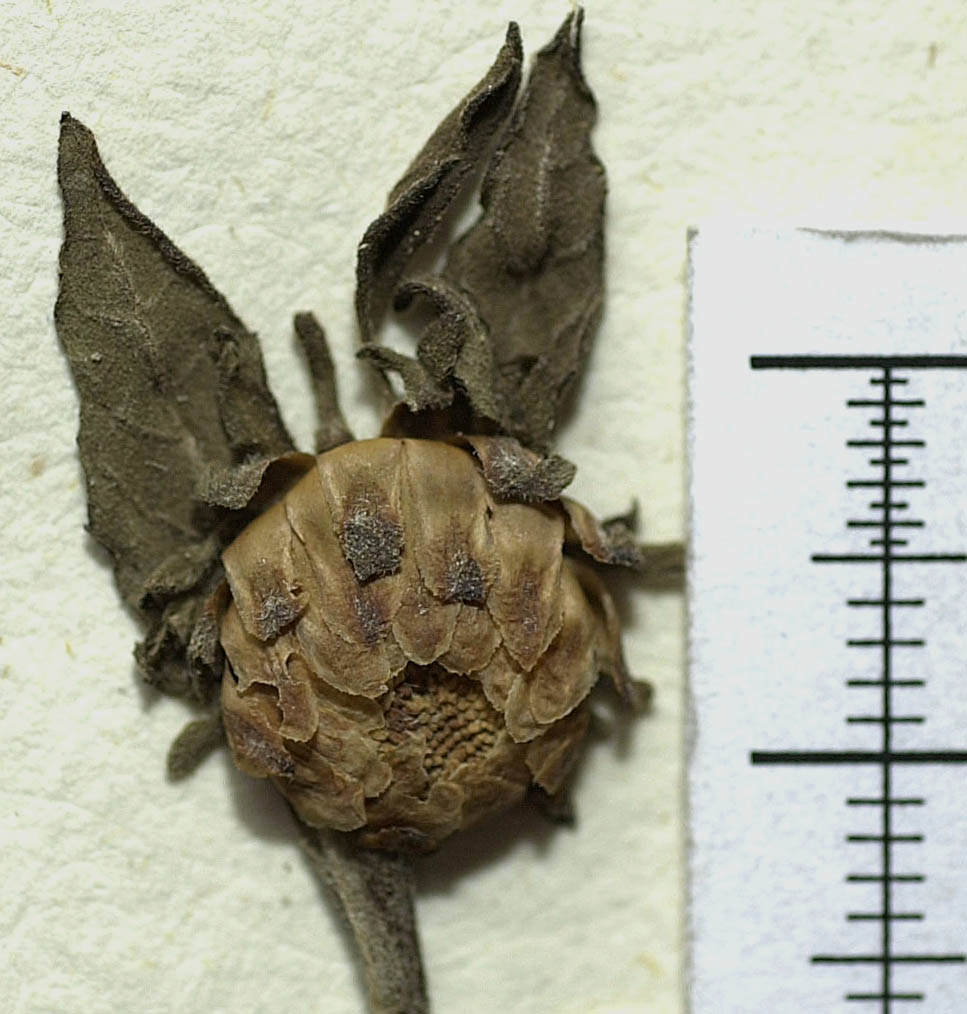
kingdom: Plantae
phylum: Tracheophyta
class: Magnoliopsida
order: Asterales
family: Asteraceae
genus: Carpesium
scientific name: Carpesium divaricatum
